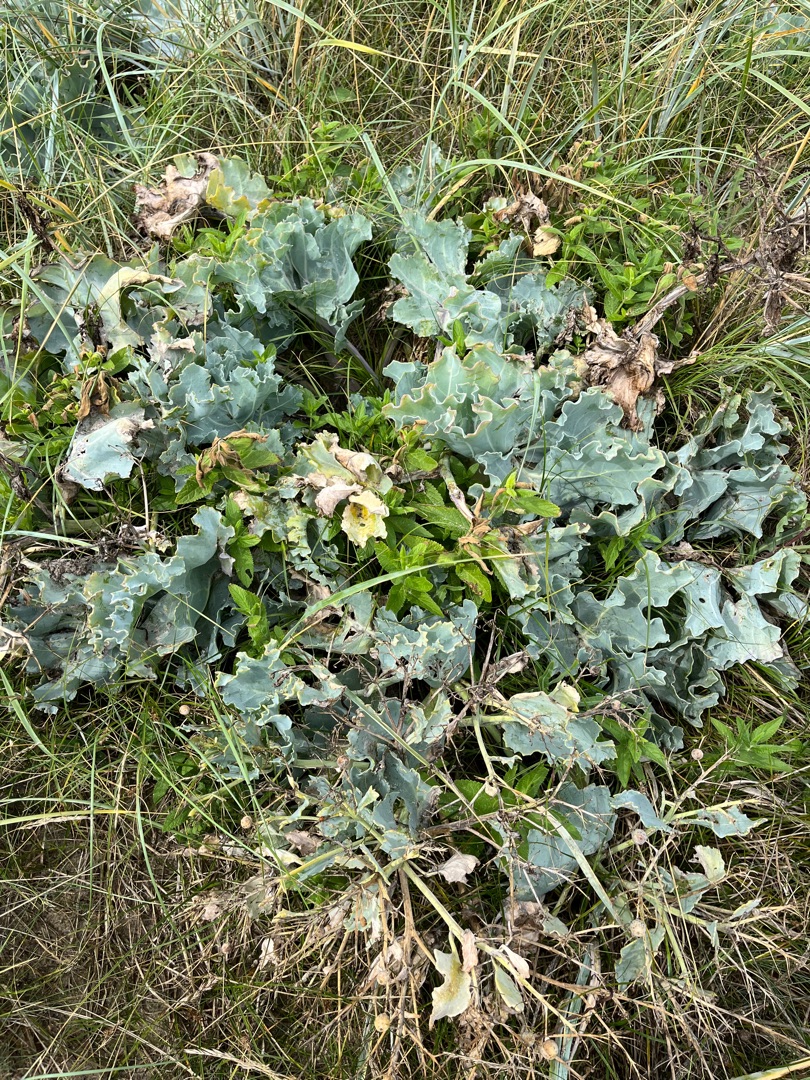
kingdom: Plantae
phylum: Tracheophyta
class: Magnoliopsida
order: Brassicales
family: Brassicaceae
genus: Crambe
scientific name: Crambe maritima
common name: Strandkål
